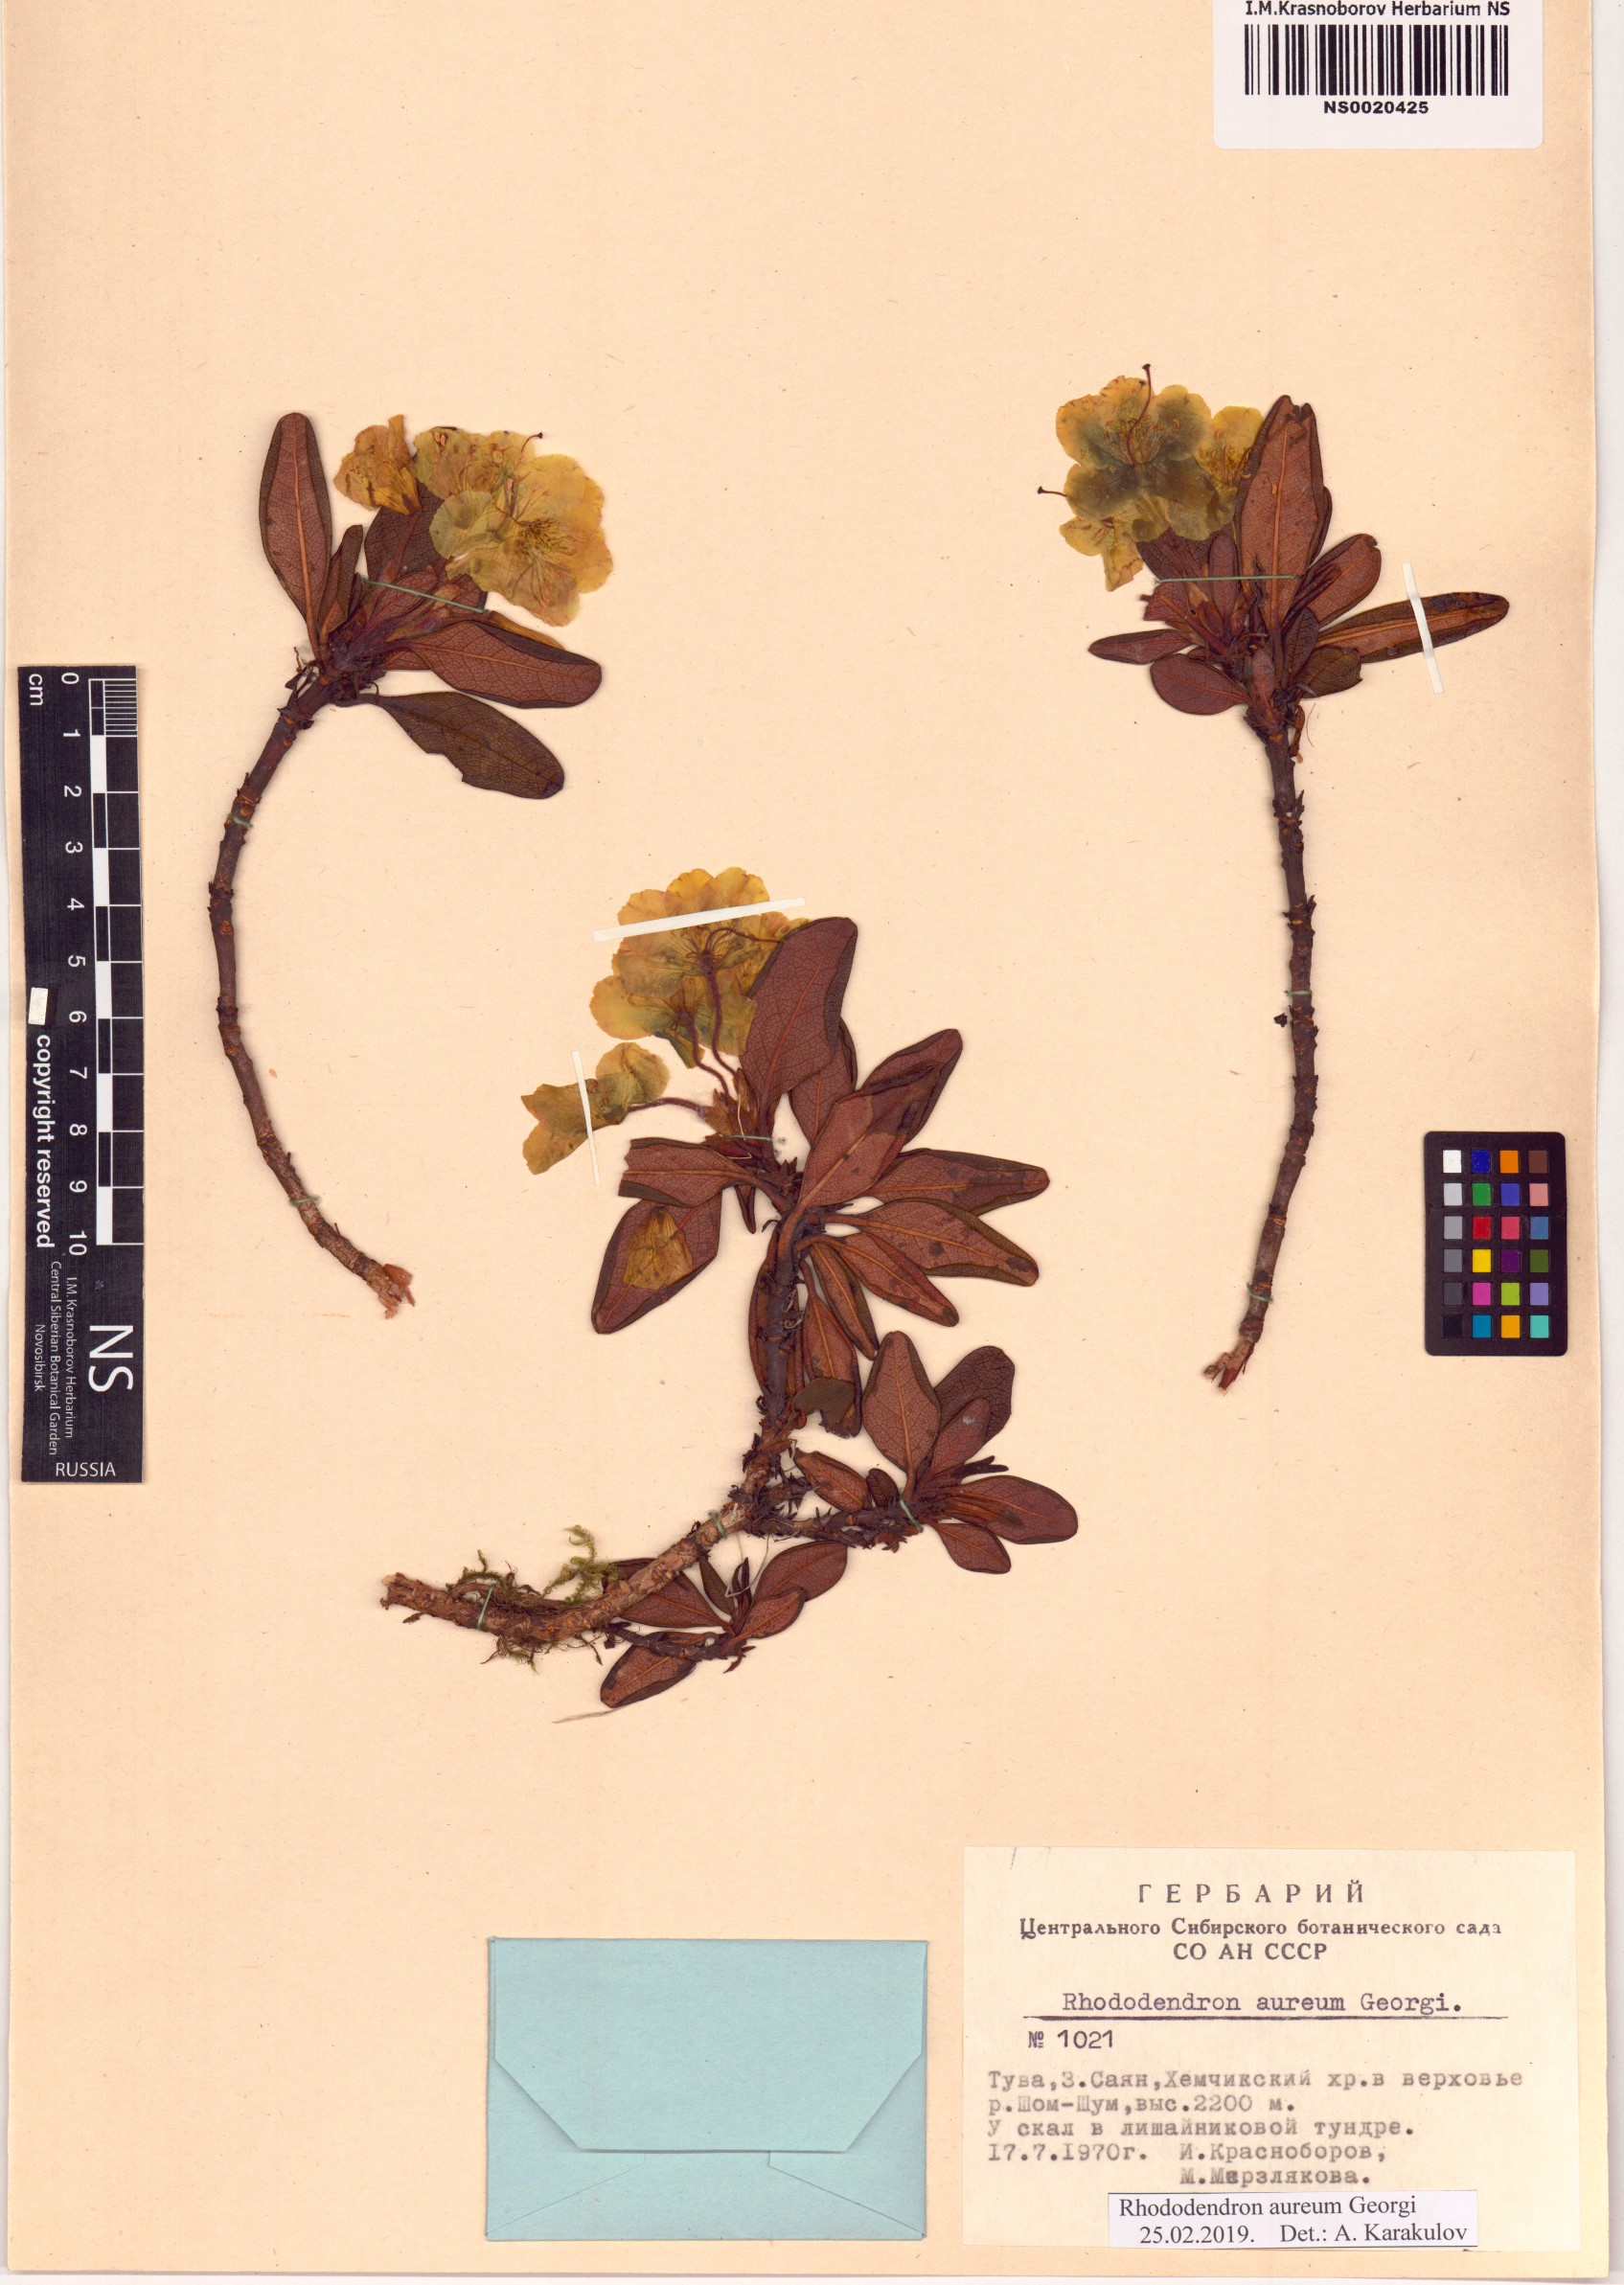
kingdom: Plantae
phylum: Tracheophyta
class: Magnoliopsida
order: Ericales
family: Ericaceae
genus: Rhododendron
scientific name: Rhododendron aureum
